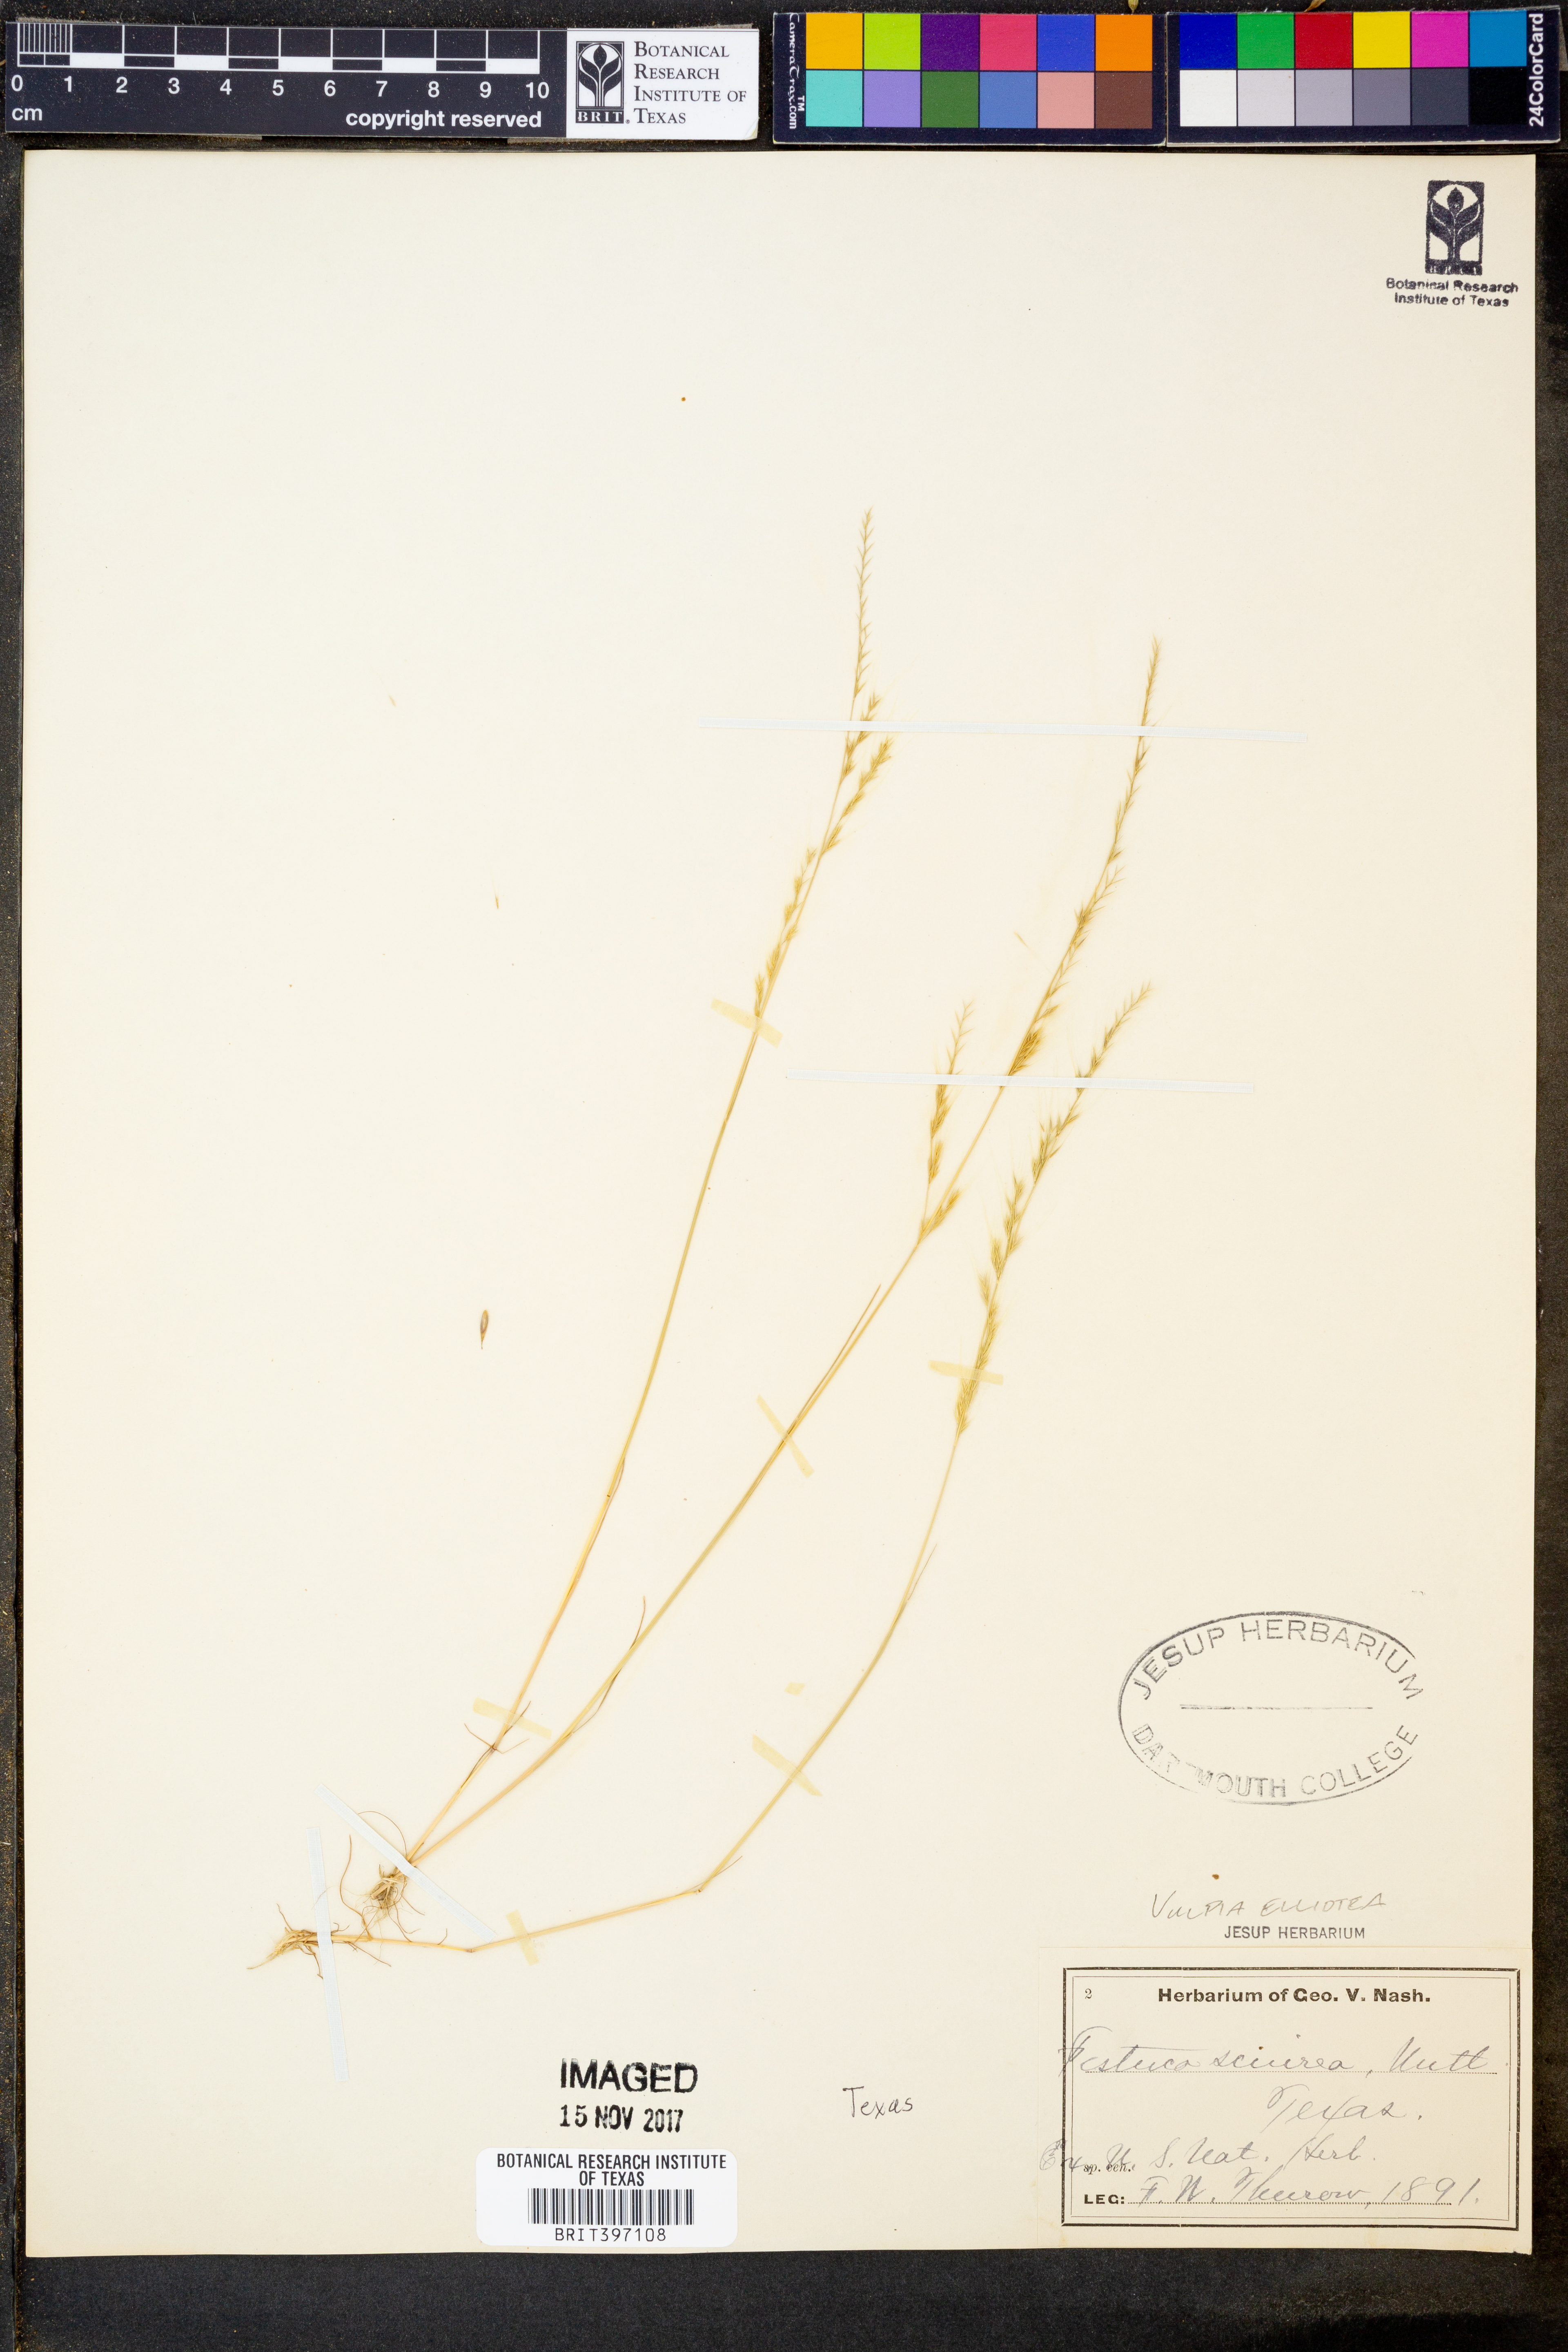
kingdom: Plantae
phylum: Tracheophyta
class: Liliopsida
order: Poales
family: Poaceae
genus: Festuca
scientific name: Festuca sciurea
